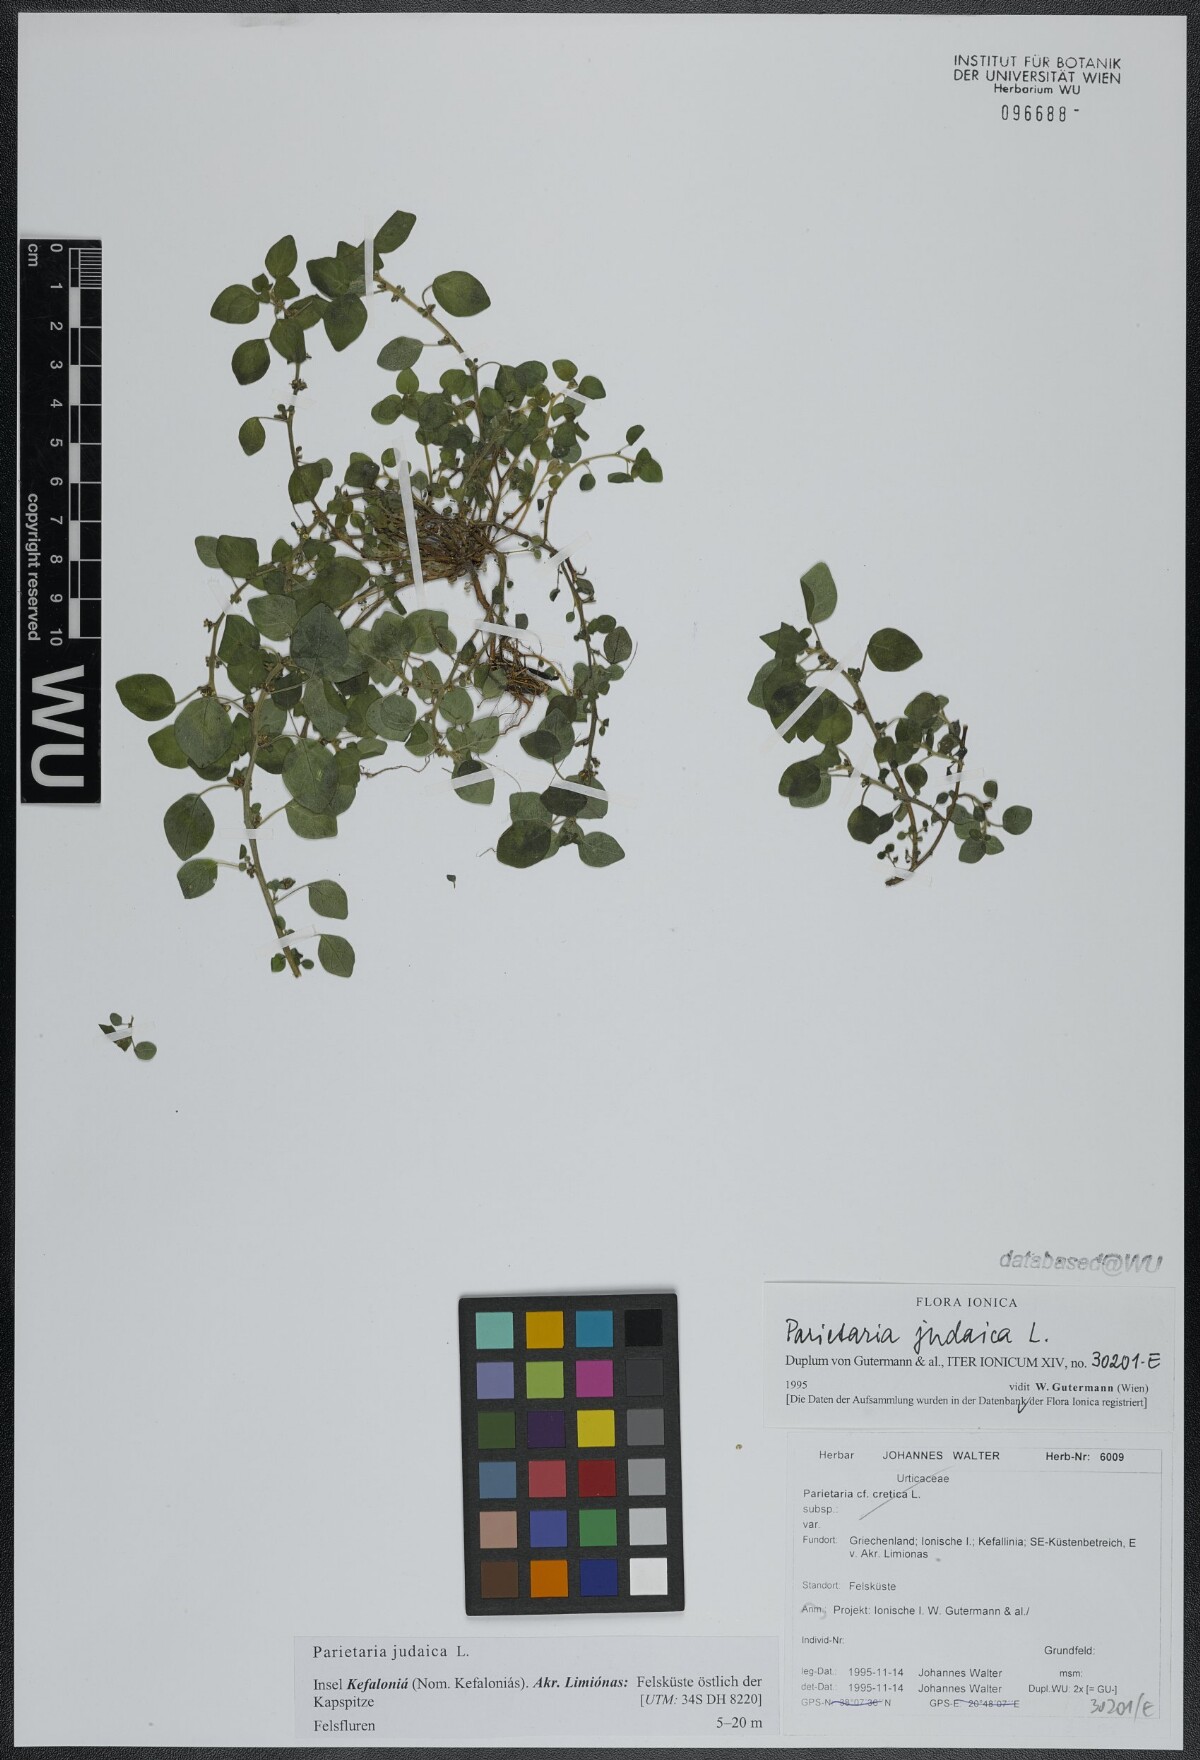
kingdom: Plantae
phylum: Tracheophyta
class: Magnoliopsida
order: Rosales
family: Urticaceae
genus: Parietaria
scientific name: Parietaria judaica
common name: Pellitory-of-the-wall
